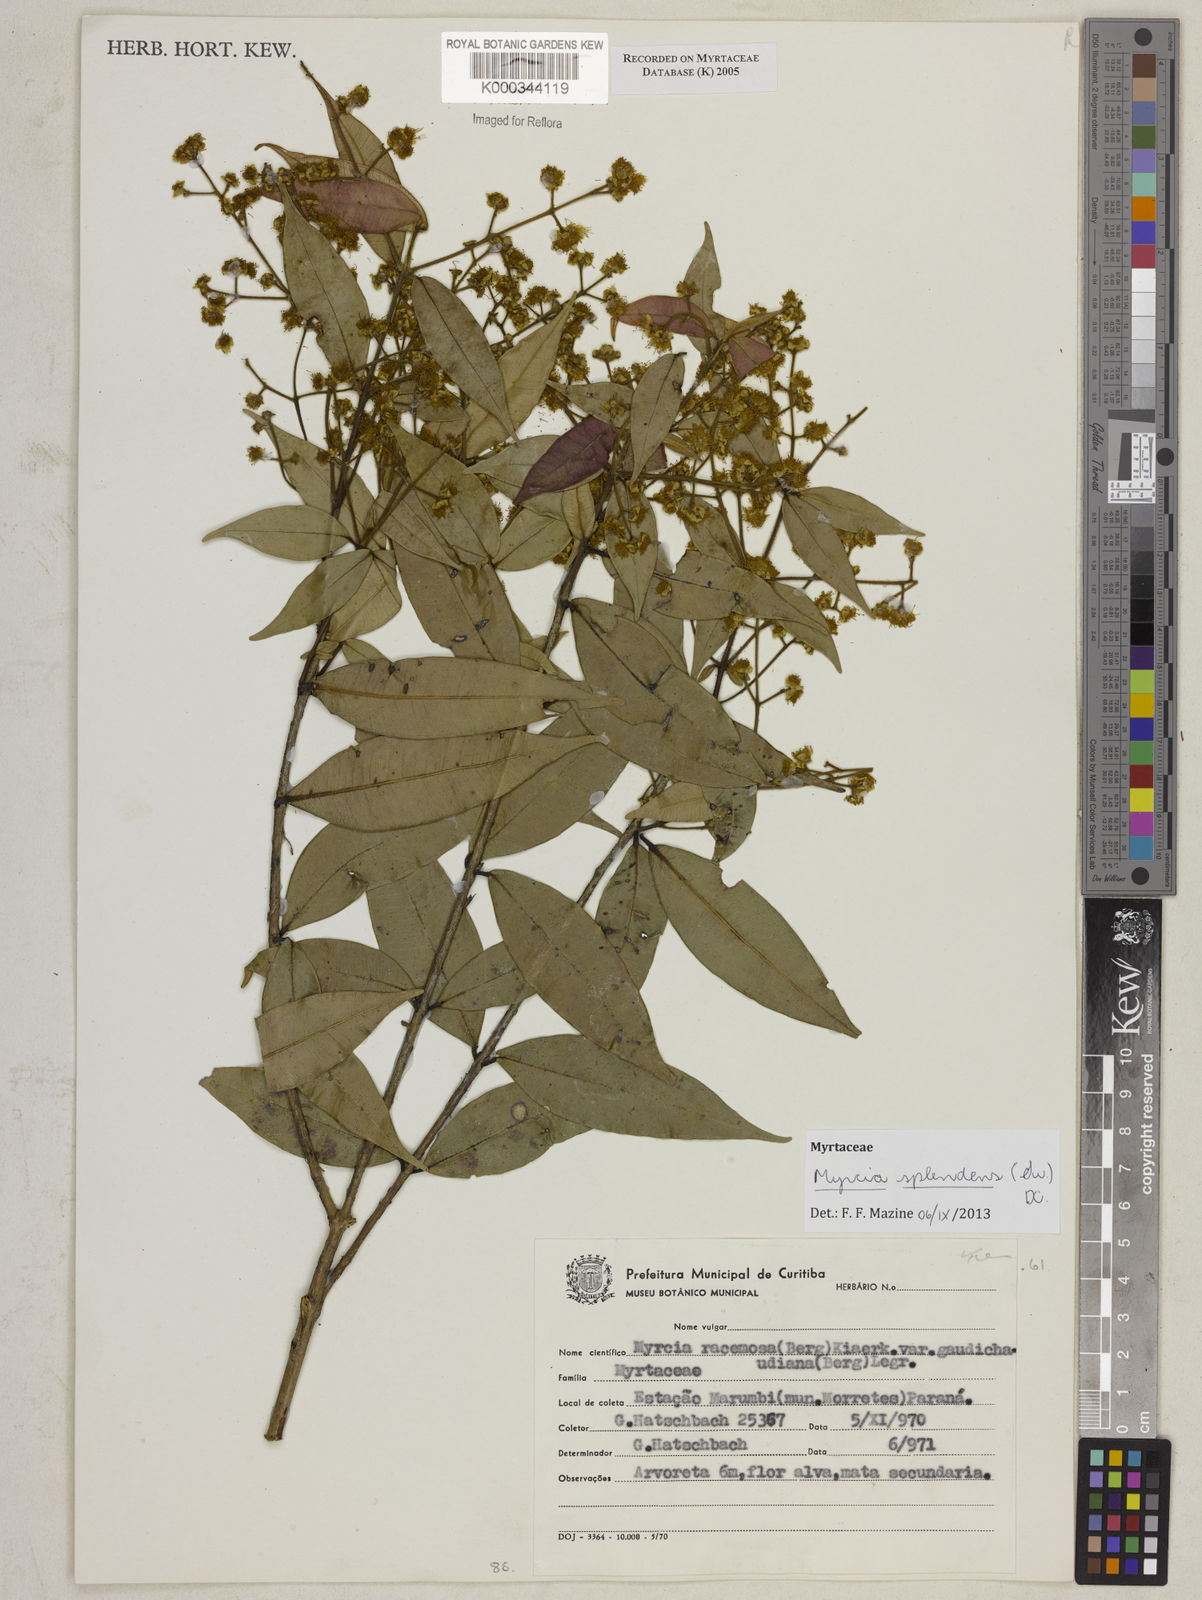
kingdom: Plantae
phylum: Tracheophyta
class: Magnoliopsida
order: Myrtales
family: Myrtaceae
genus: Myrcia
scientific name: Myrcia racemosa
